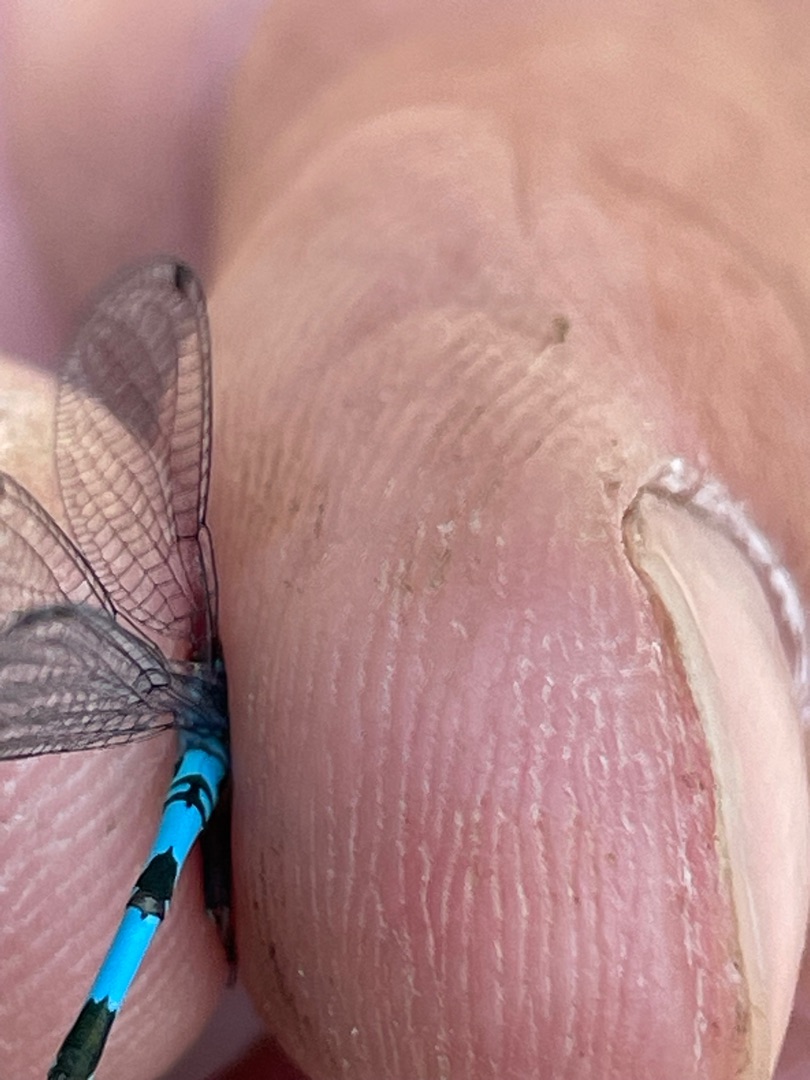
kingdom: Animalia
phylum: Arthropoda
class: Insecta
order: Odonata
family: Coenagrionidae
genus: Coenagrion
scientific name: Coenagrion hastulatum
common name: Spyd-vandnymfe
